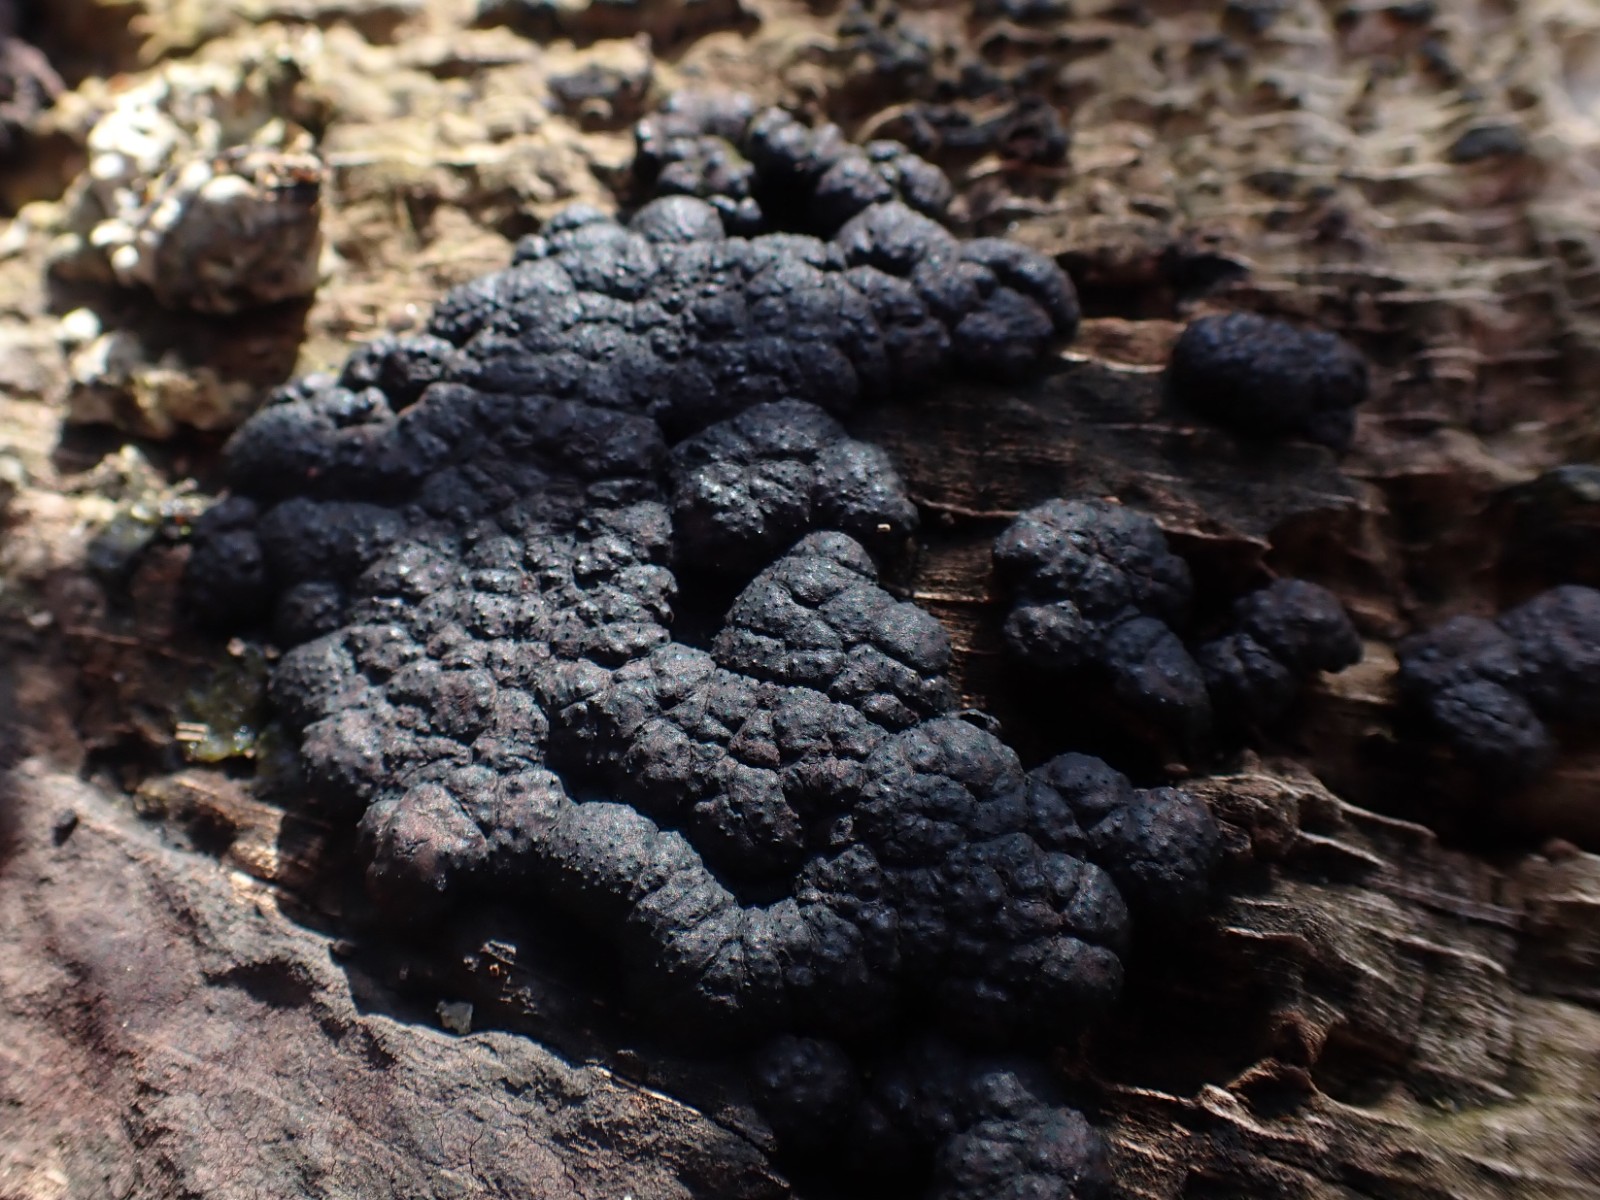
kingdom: Fungi
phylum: Ascomycota
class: Sordariomycetes
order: Xylariales
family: Hypoxylaceae
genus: Jackrogersella
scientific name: Jackrogersella cohaerens
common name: sammenflydende kulbær
